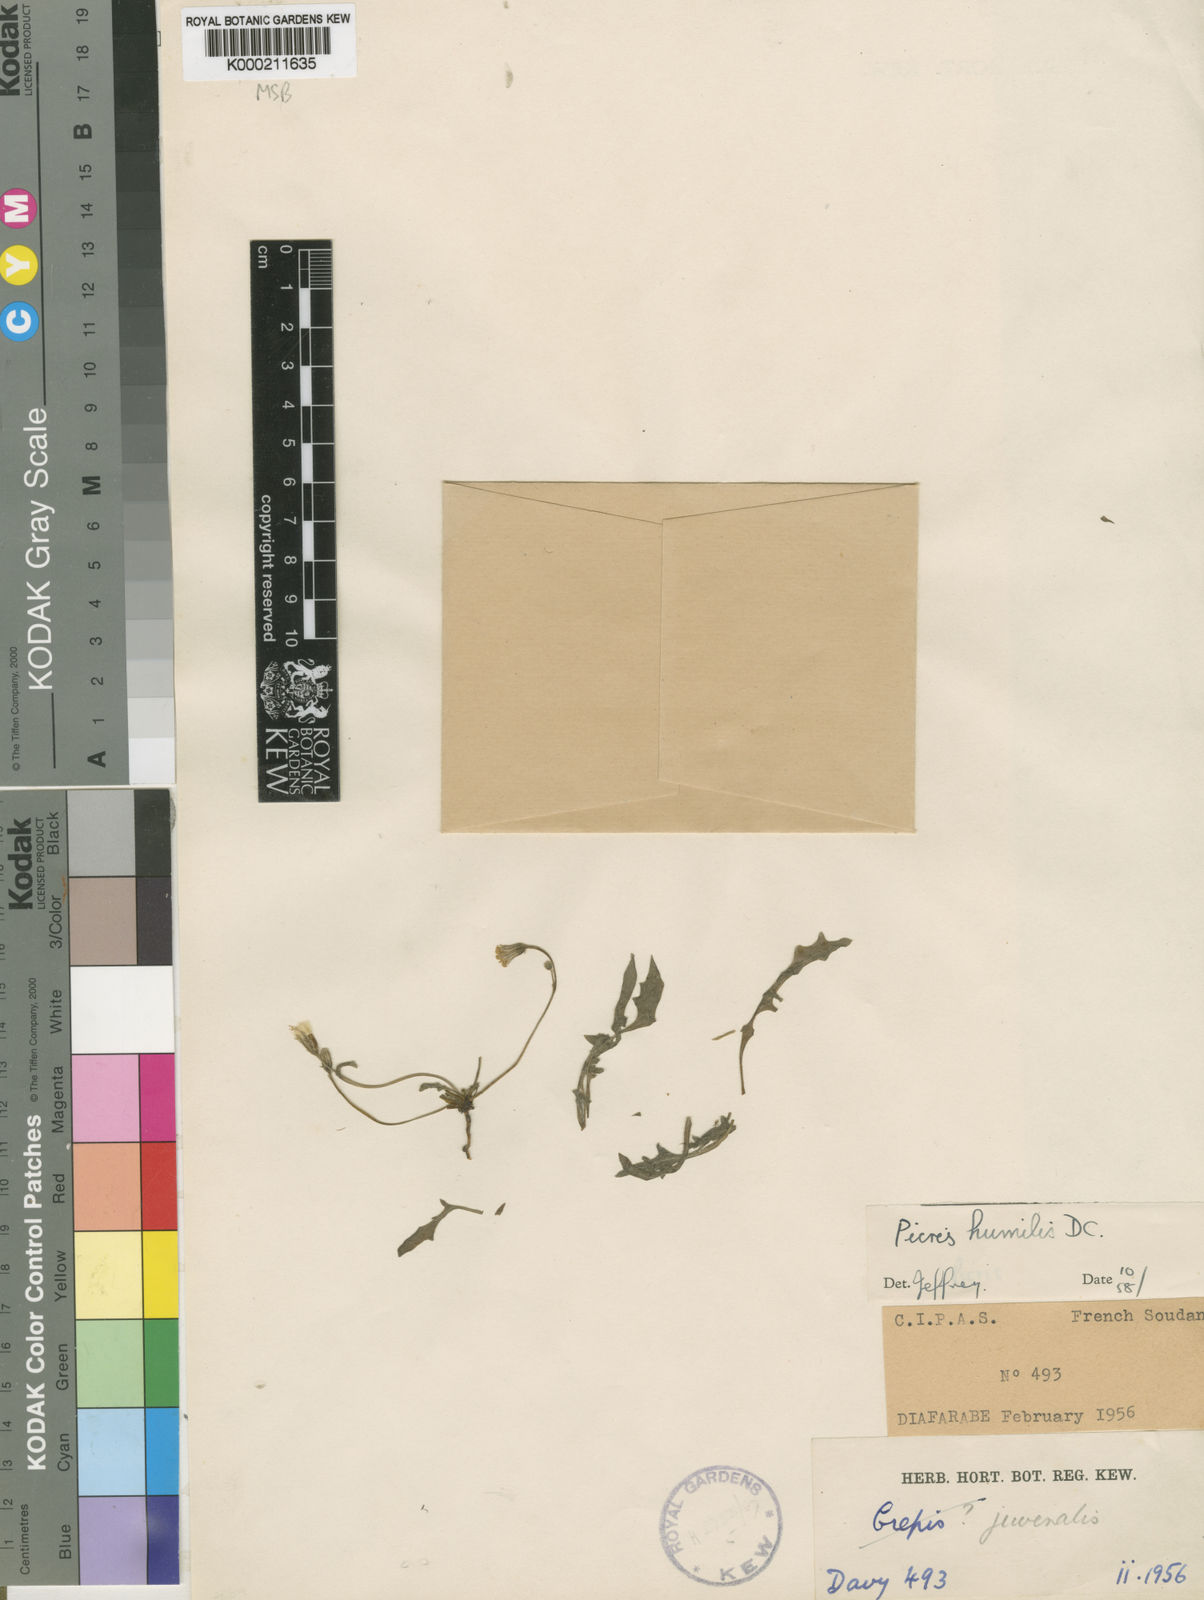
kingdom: Plantae
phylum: Tracheophyta
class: Magnoliopsida
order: Asterales
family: Asteraceae
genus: Picris
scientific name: Picris humilis
